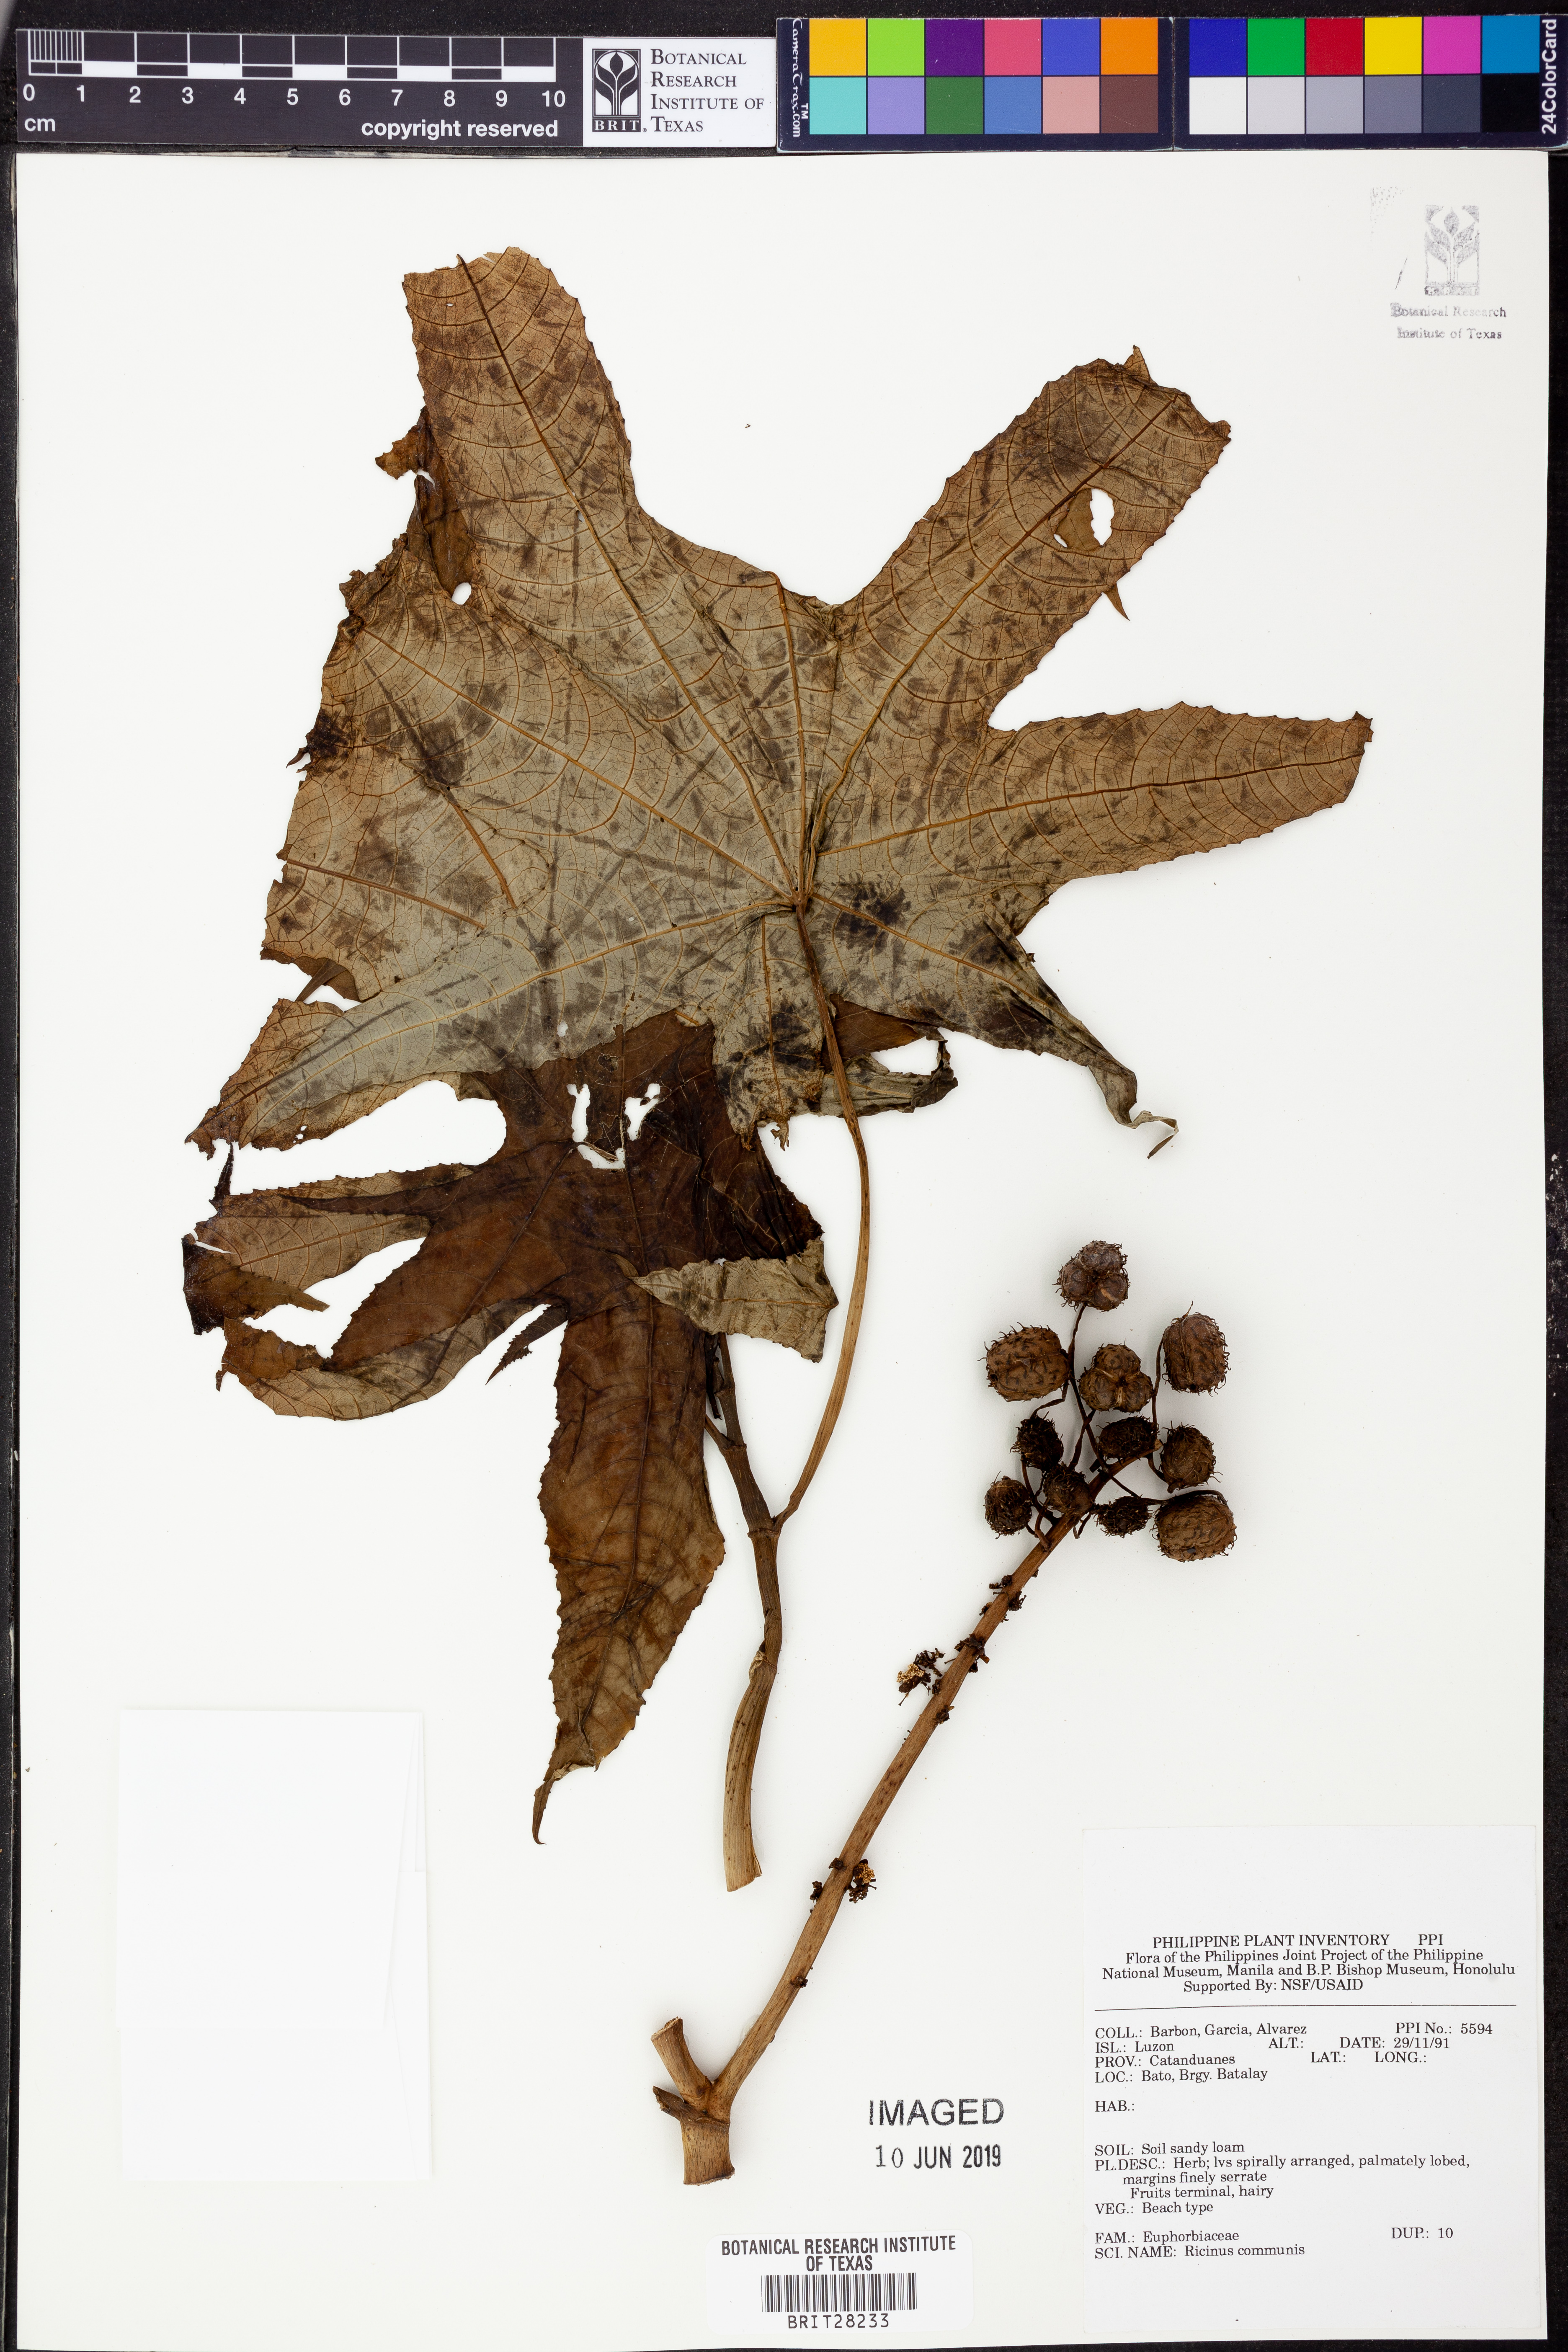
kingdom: Plantae
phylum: Tracheophyta
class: Magnoliopsida
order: Malpighiales
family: Euphorbiaceae
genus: Ricinus
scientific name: Ricinus communis
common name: Castor-oil-plant
